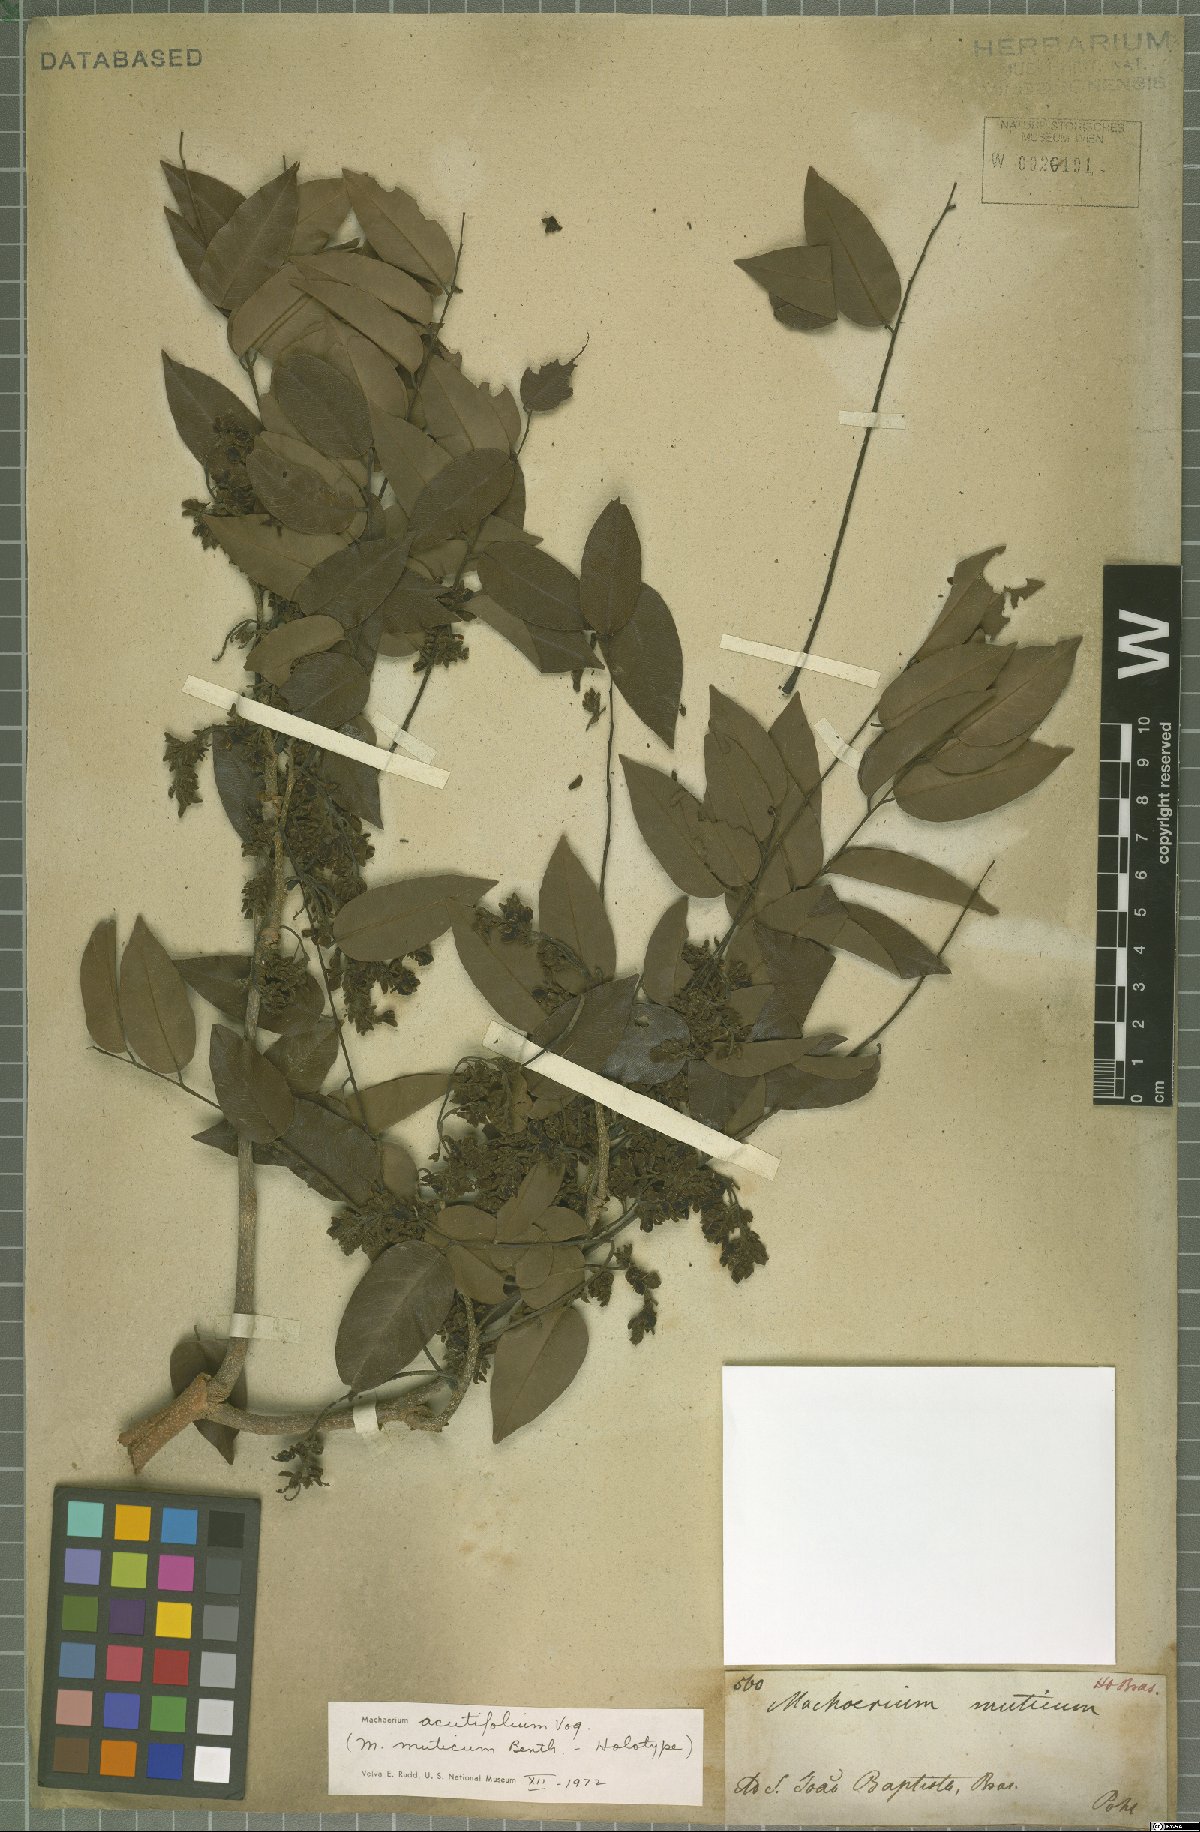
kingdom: Plantae
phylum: Tracheophyta
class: Magnoliopsida
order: Fabales
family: Fabaceae
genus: Machaerium
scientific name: Machaerium acutifolium
